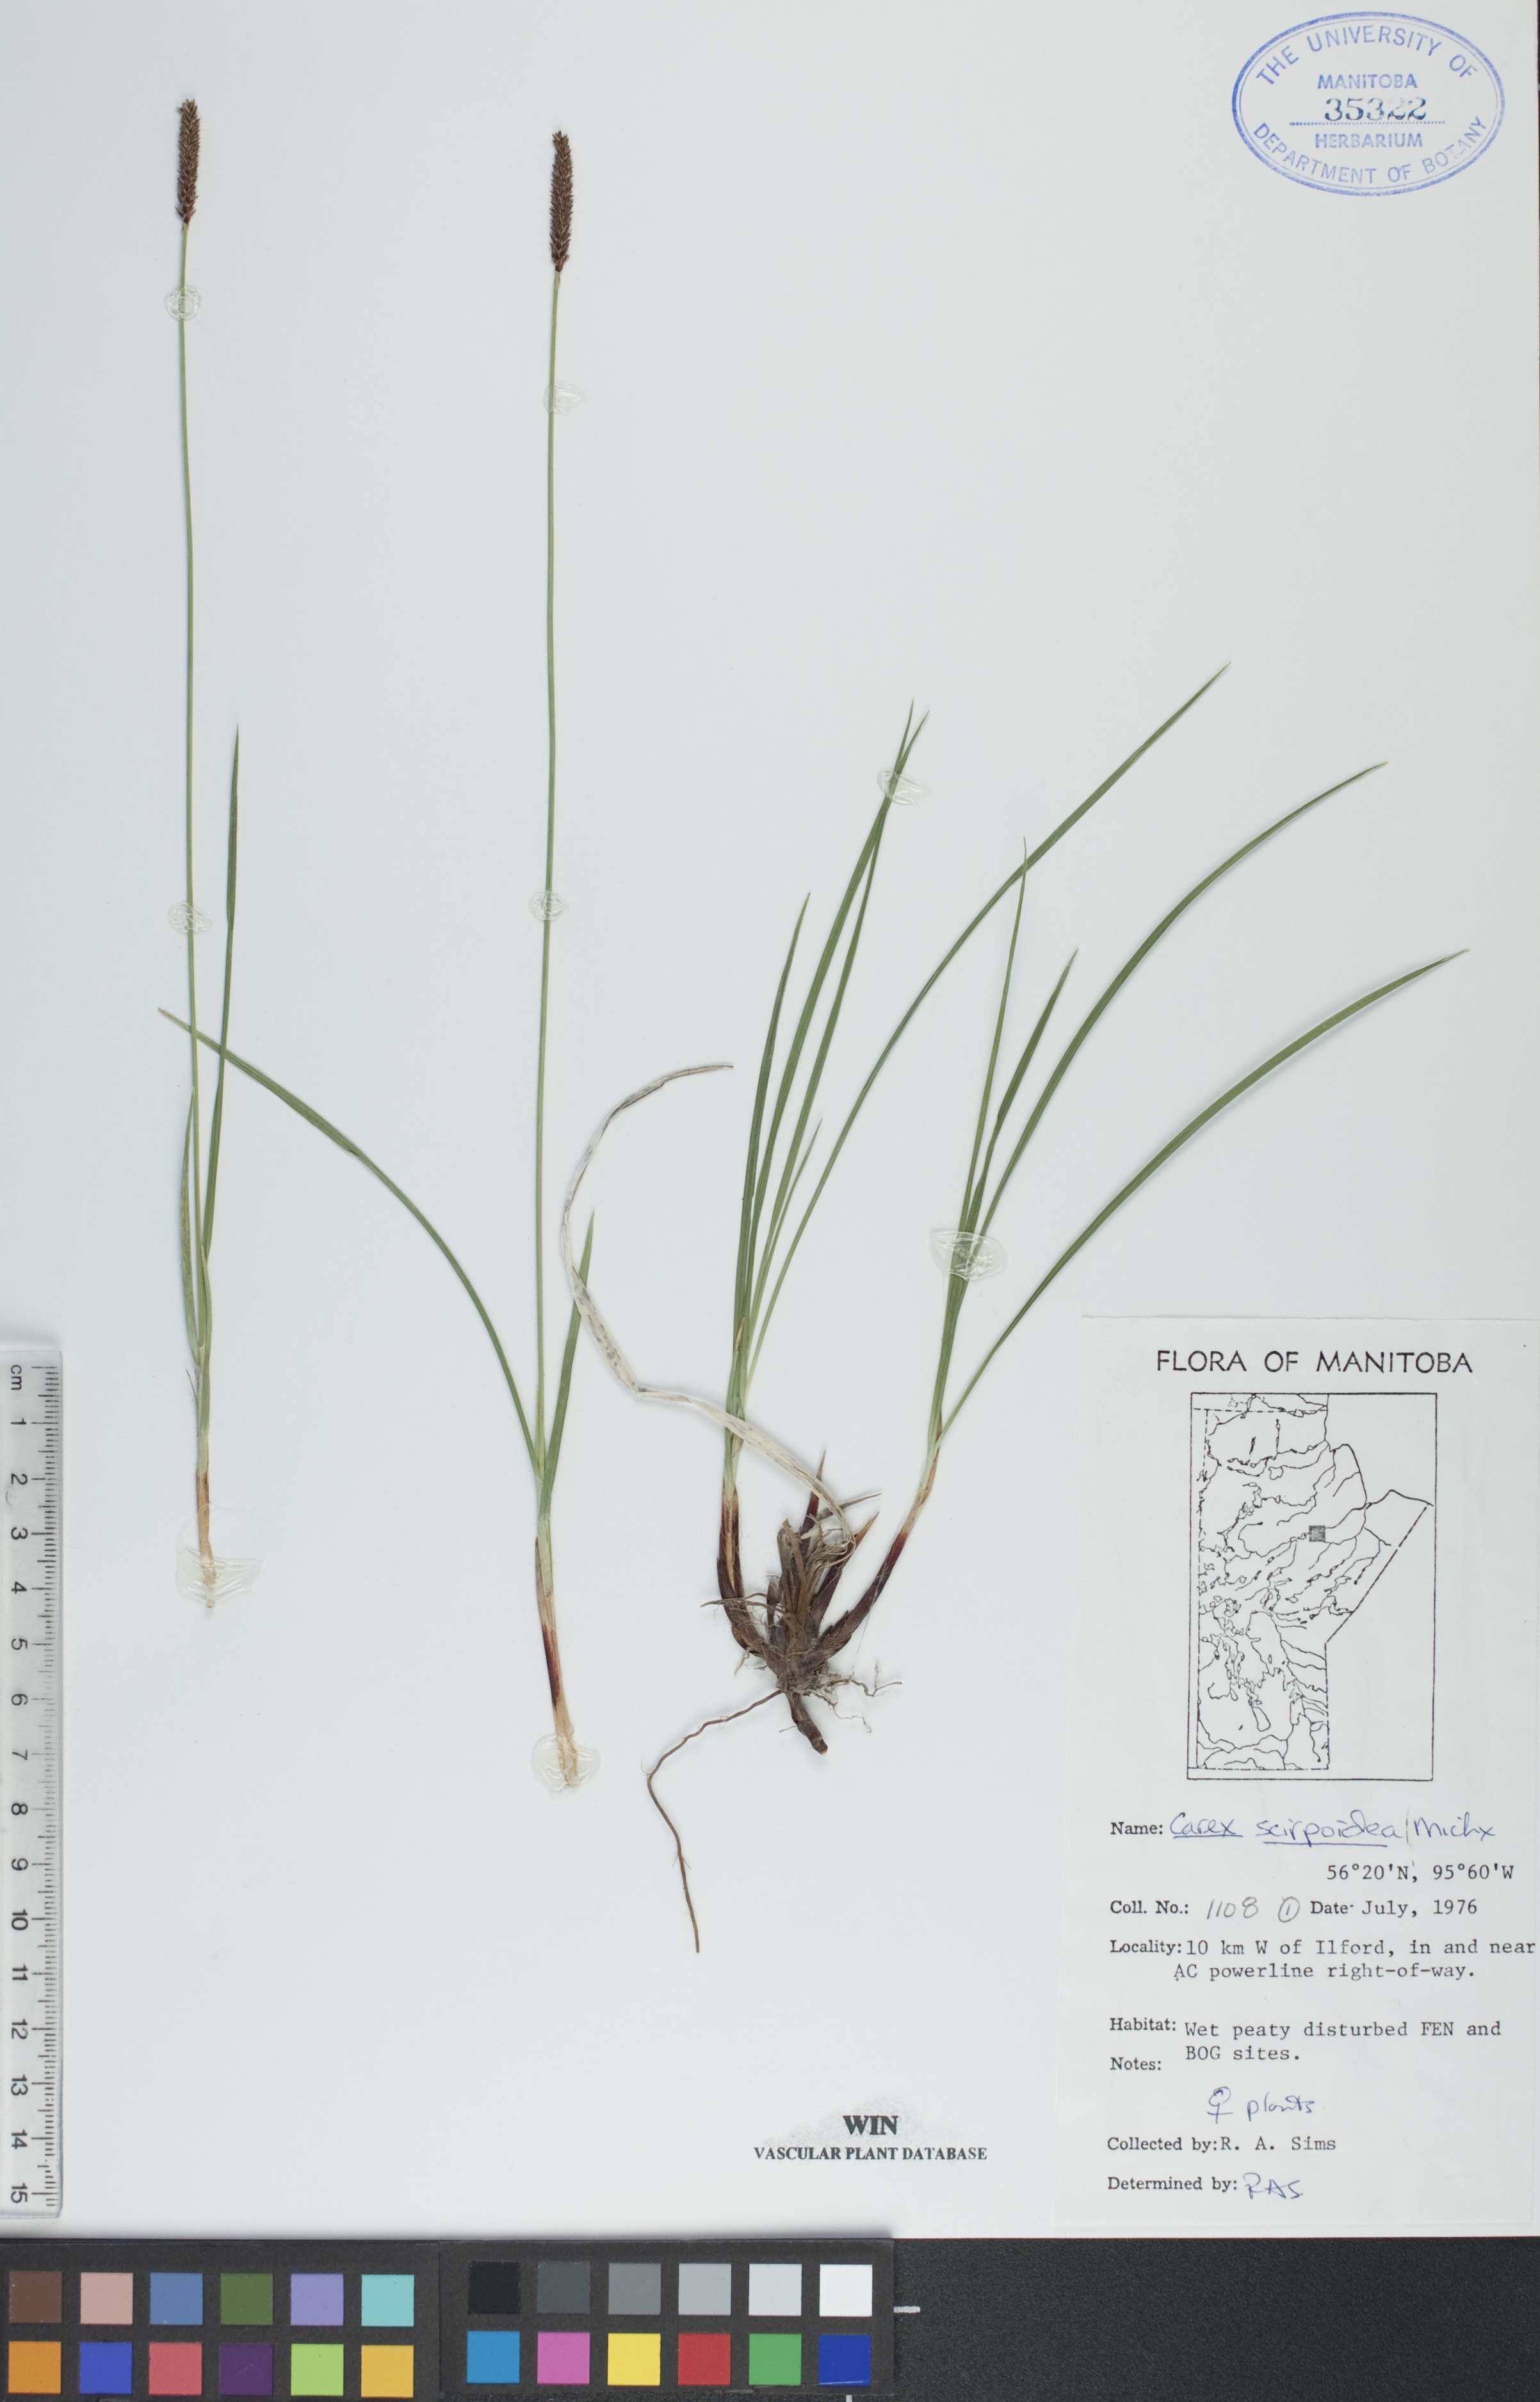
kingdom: Plantae
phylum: Tracheophyta
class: Liliopsida
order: Poales
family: Cyperaceae
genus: Carex
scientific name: Carex scirpoidea
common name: Canada single-spike sedge
